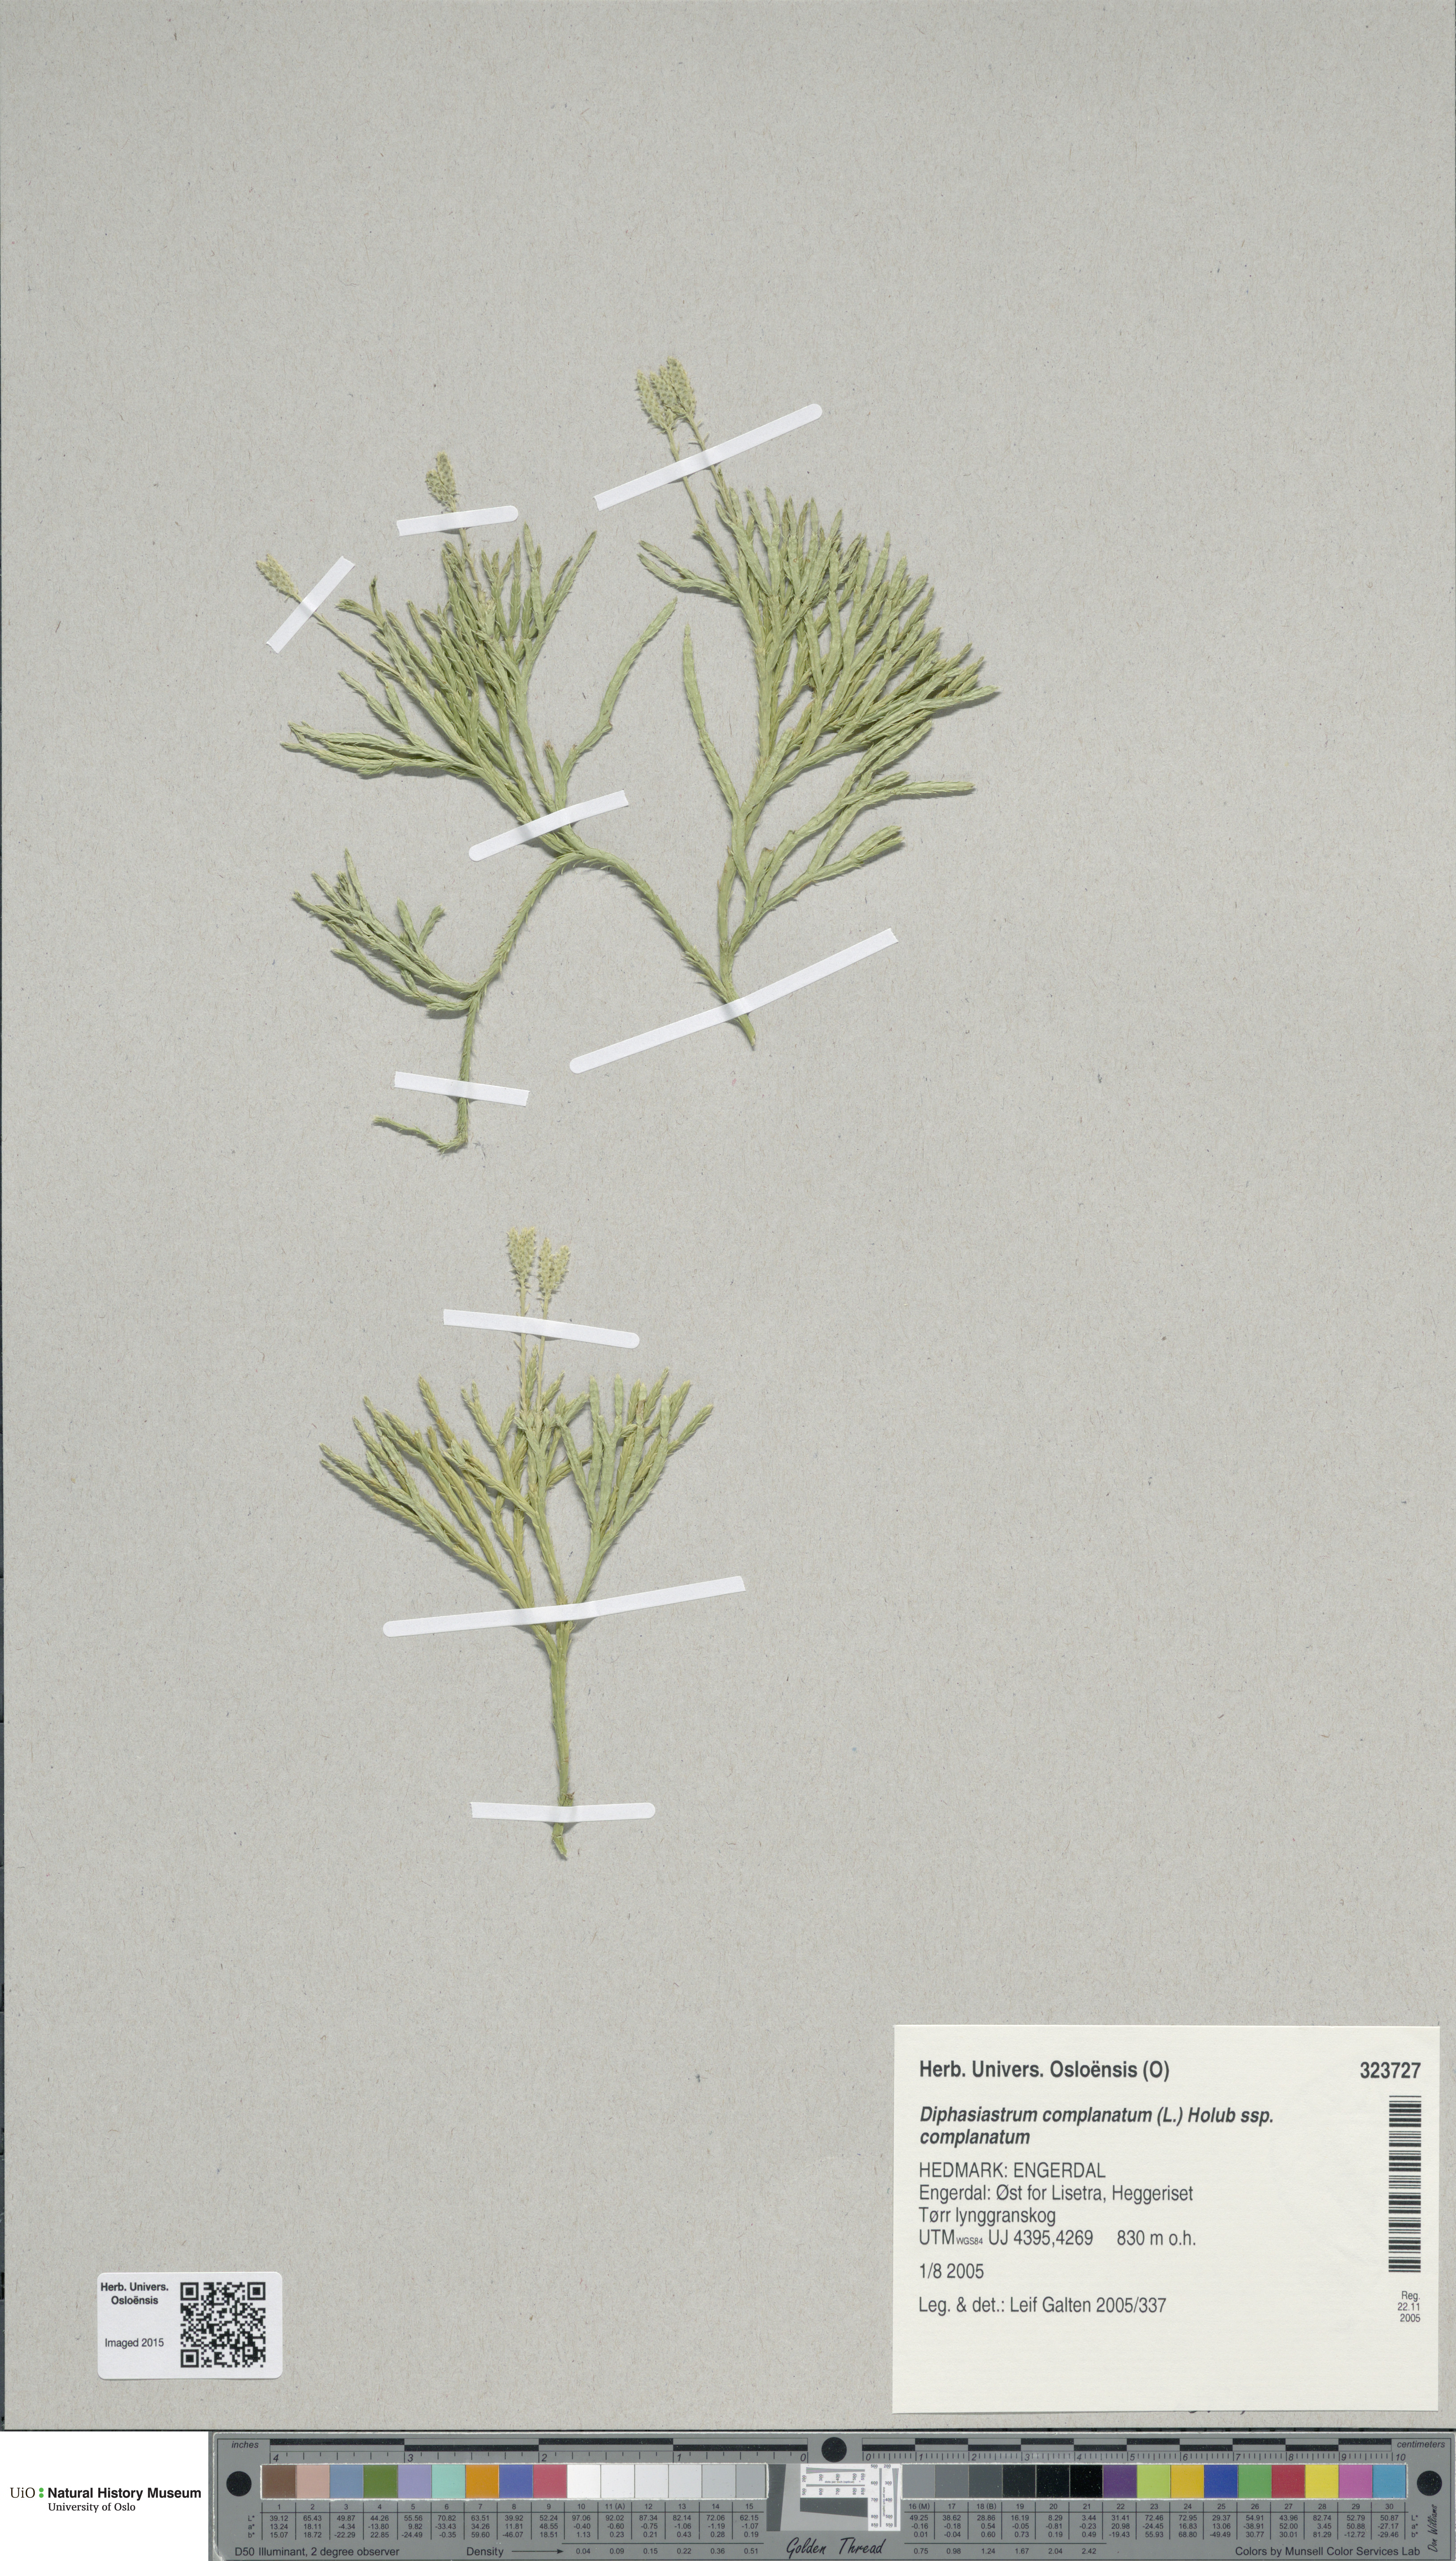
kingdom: Plantae
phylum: Tracheophyta
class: Lycopodiopsida
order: Lycopodiales
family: Lycopodiaceae
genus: Diphasiastrum
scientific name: Diphasiastrum complanatum
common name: Northern running-pine
